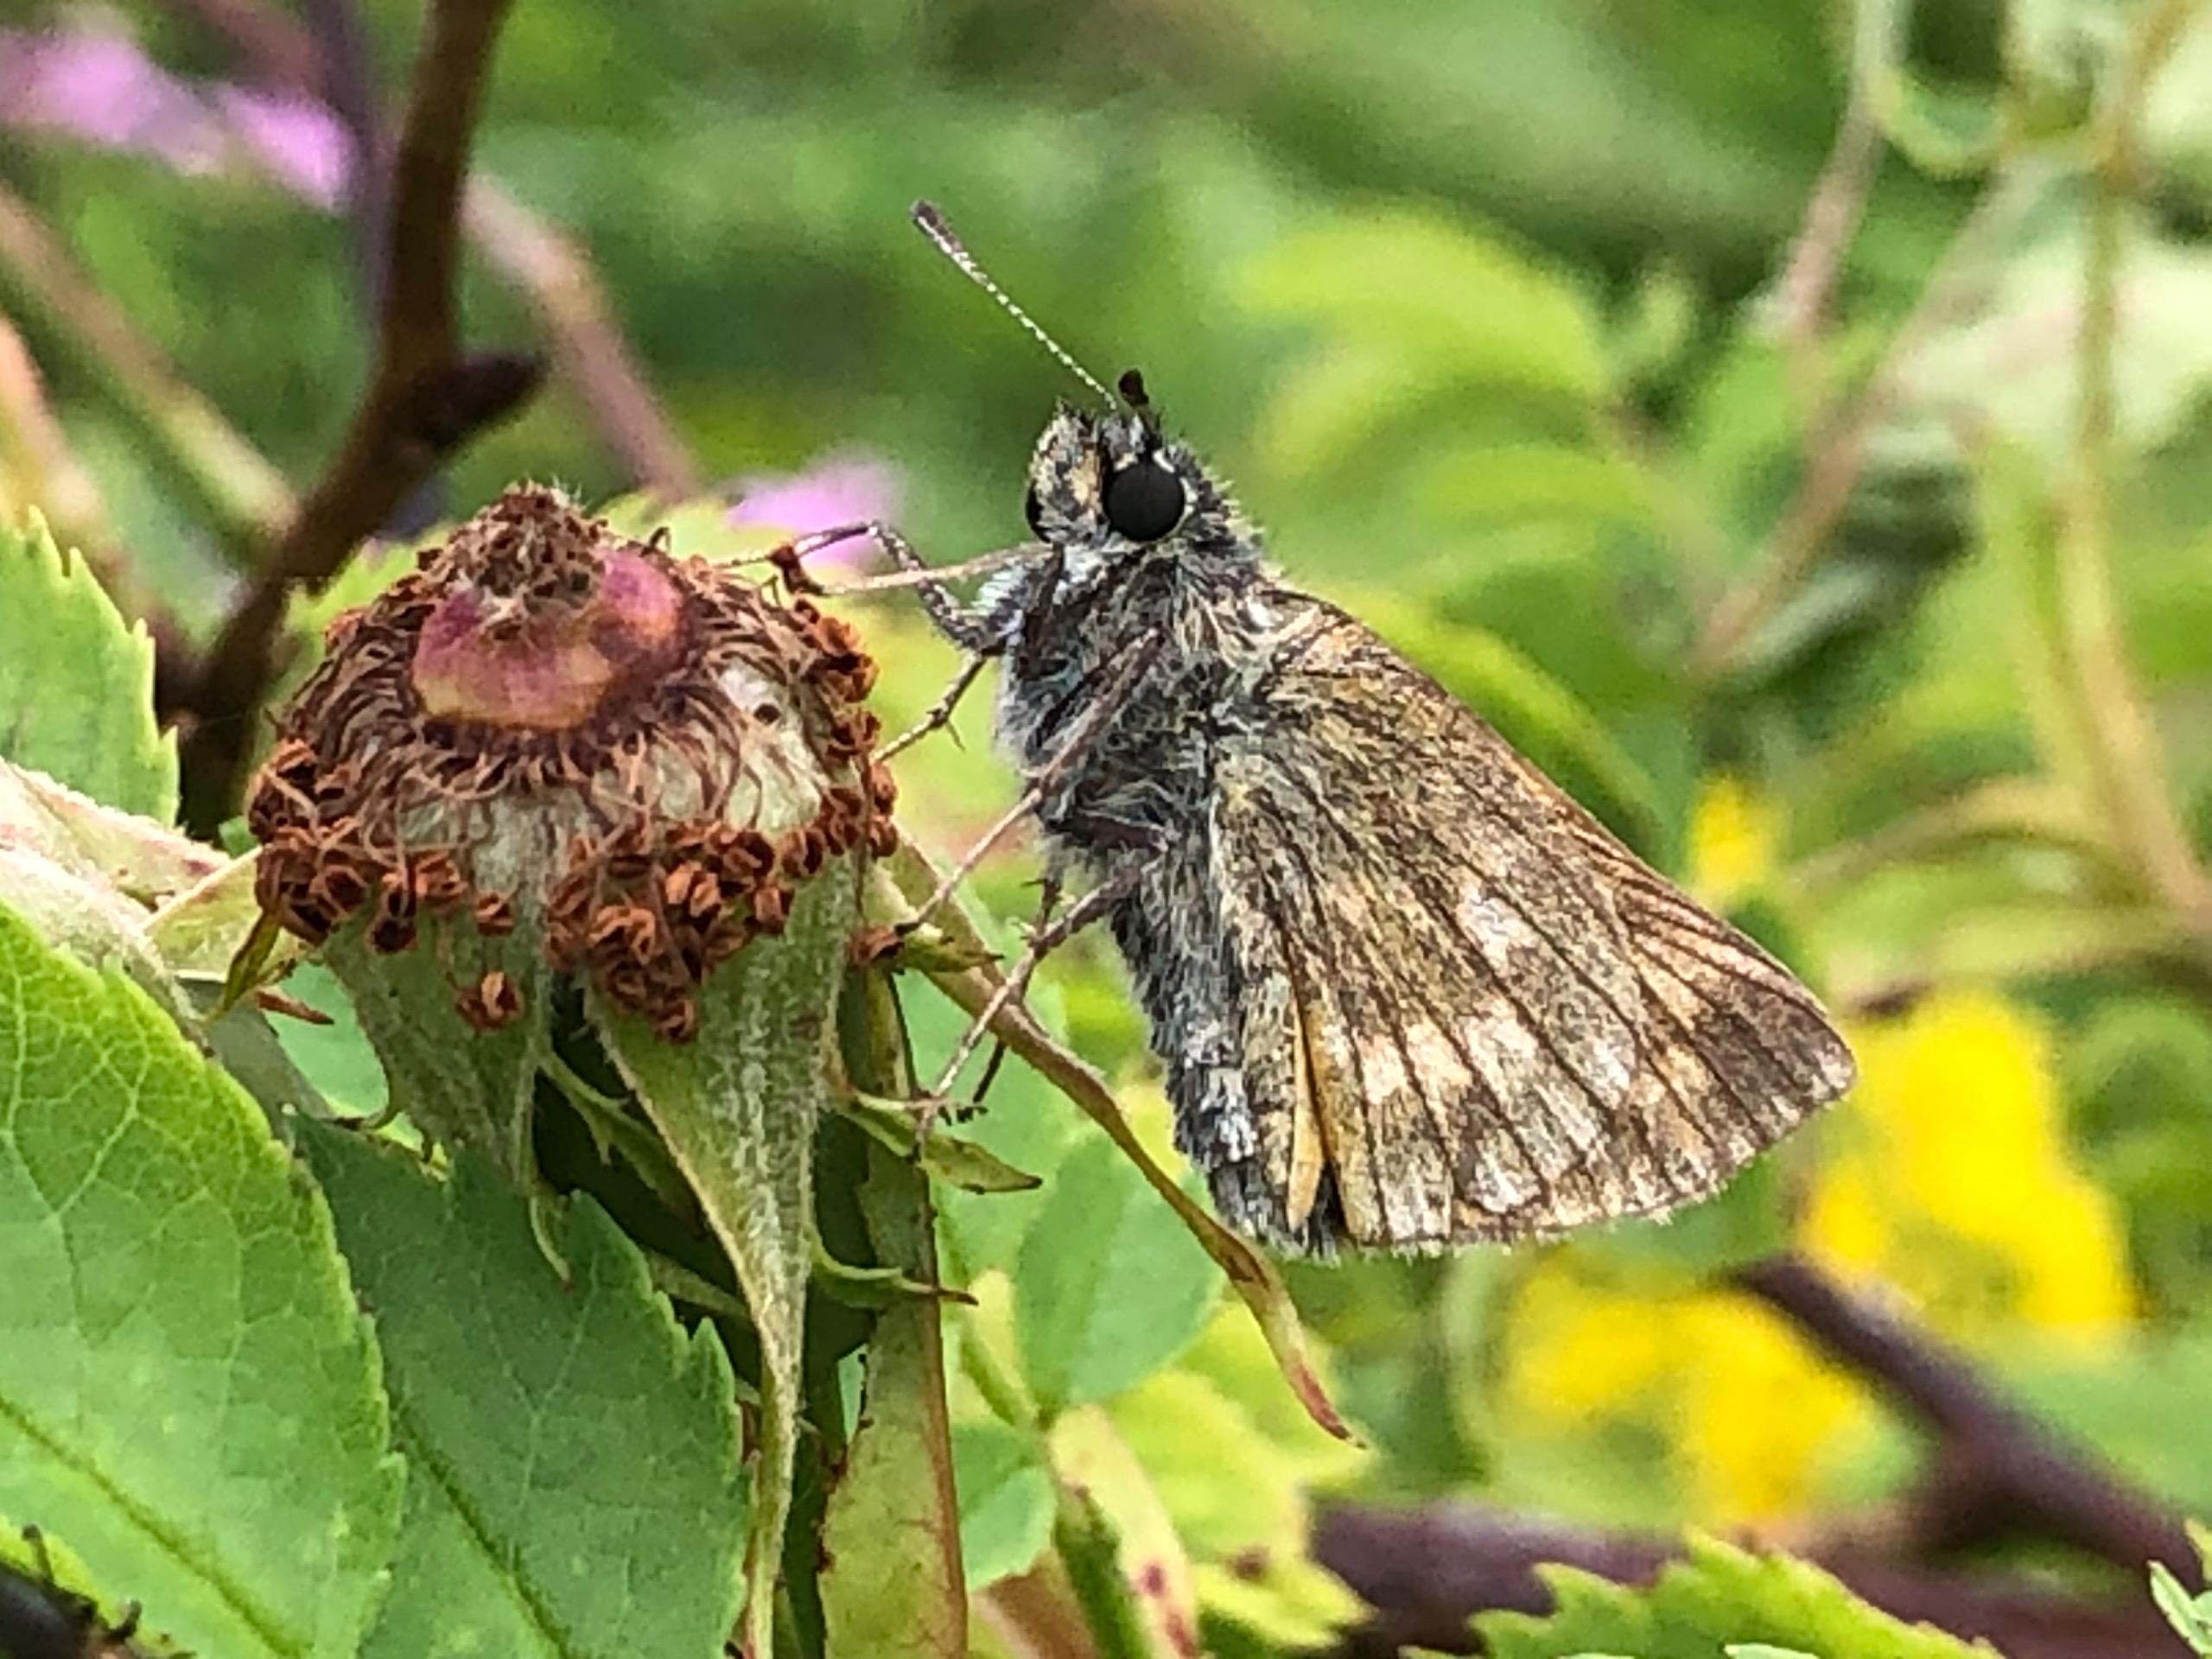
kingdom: Animalia
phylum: Arthropoda
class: Insecta
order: Lepidoptera
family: Hesperiidae
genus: Ochlodes
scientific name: Ochlodes venata
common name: Stor bredpande
